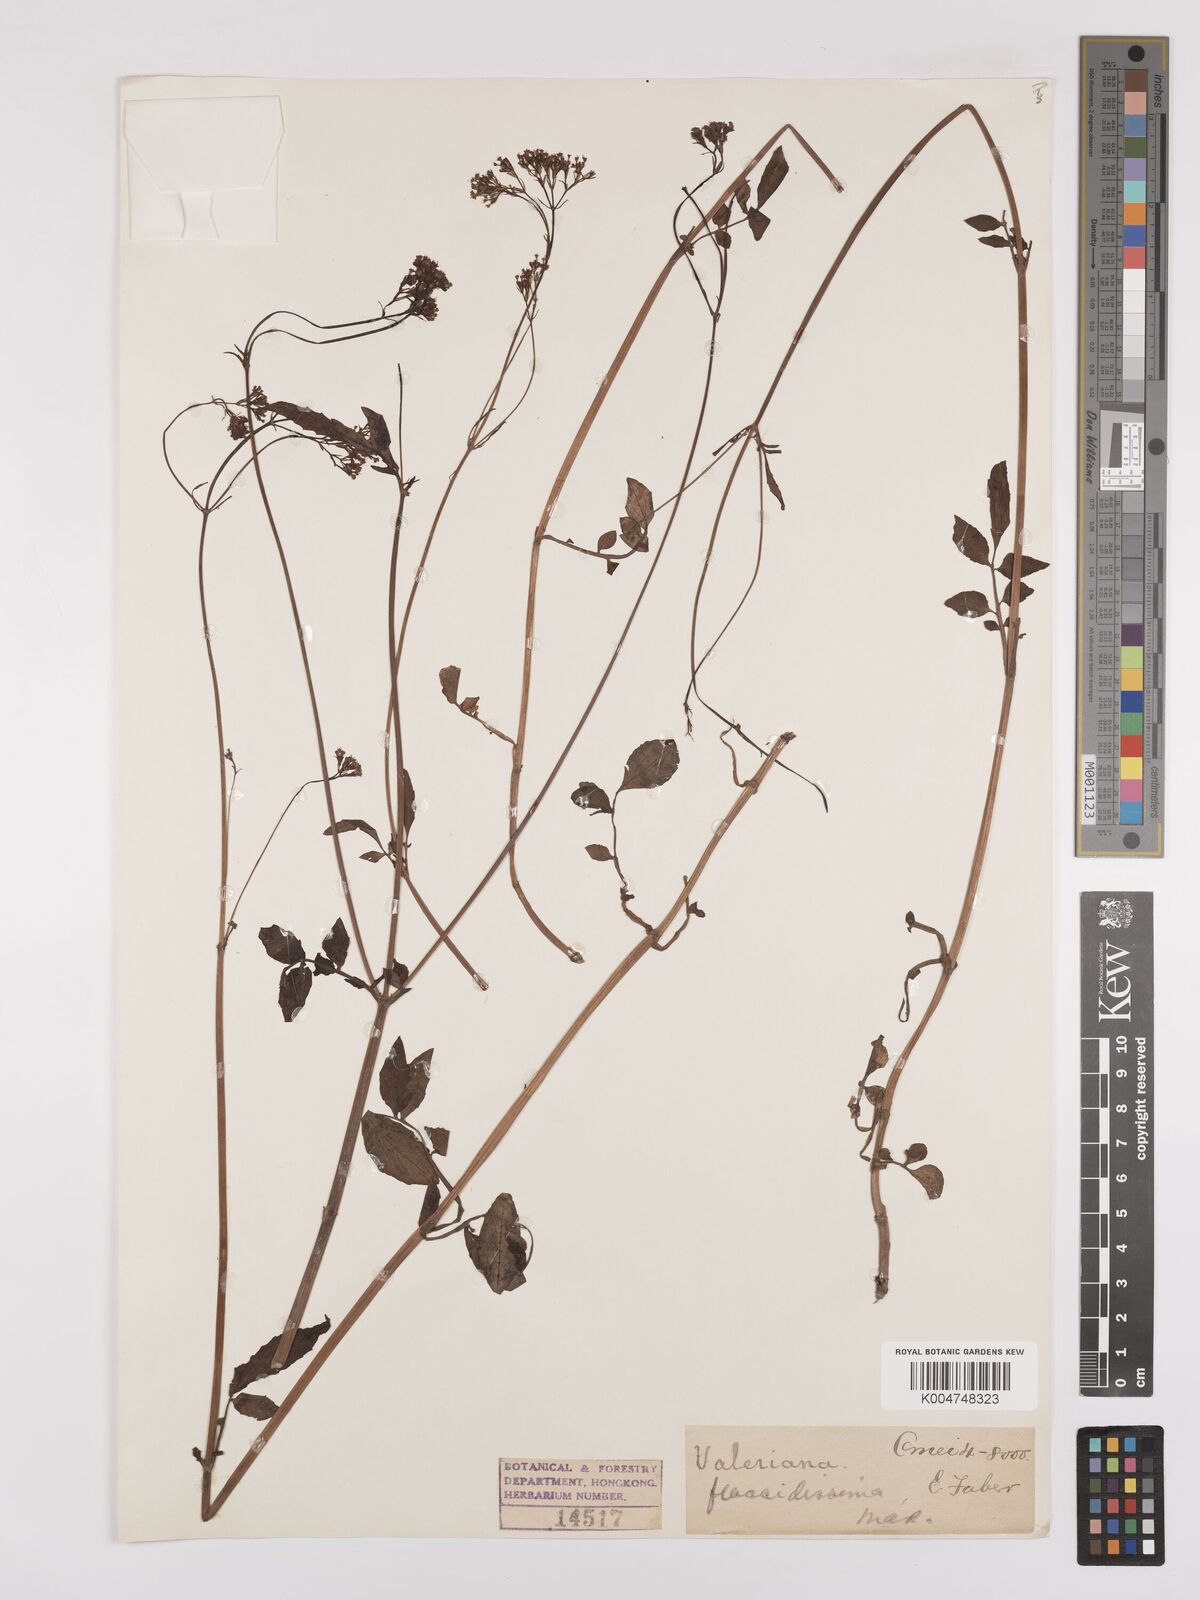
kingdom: Plantae
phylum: Tracheophyta
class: Magnoliopsida
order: Dipsacales
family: Caprifoliaceae
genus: Valeriana
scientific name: Valeriana flaccidissima
